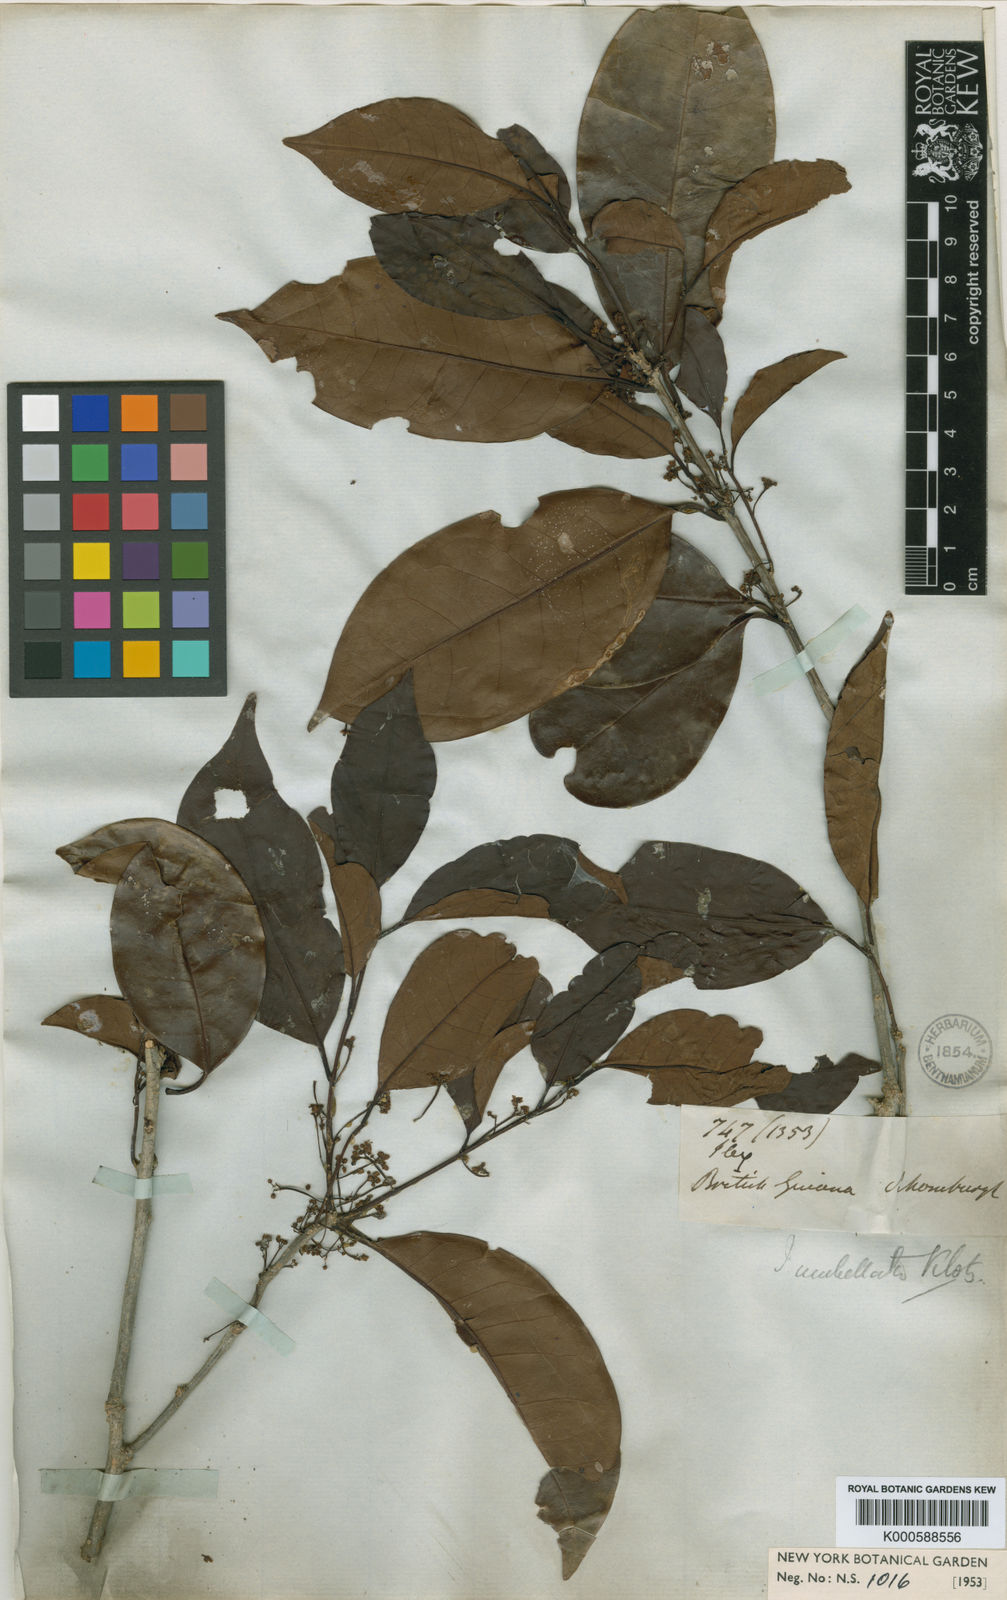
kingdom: Plantae
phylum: Tracheophyta
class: Magnoliopsida
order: Aquifoliales
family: Aquifoliaceae
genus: Ilex
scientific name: Ilex umbellata
